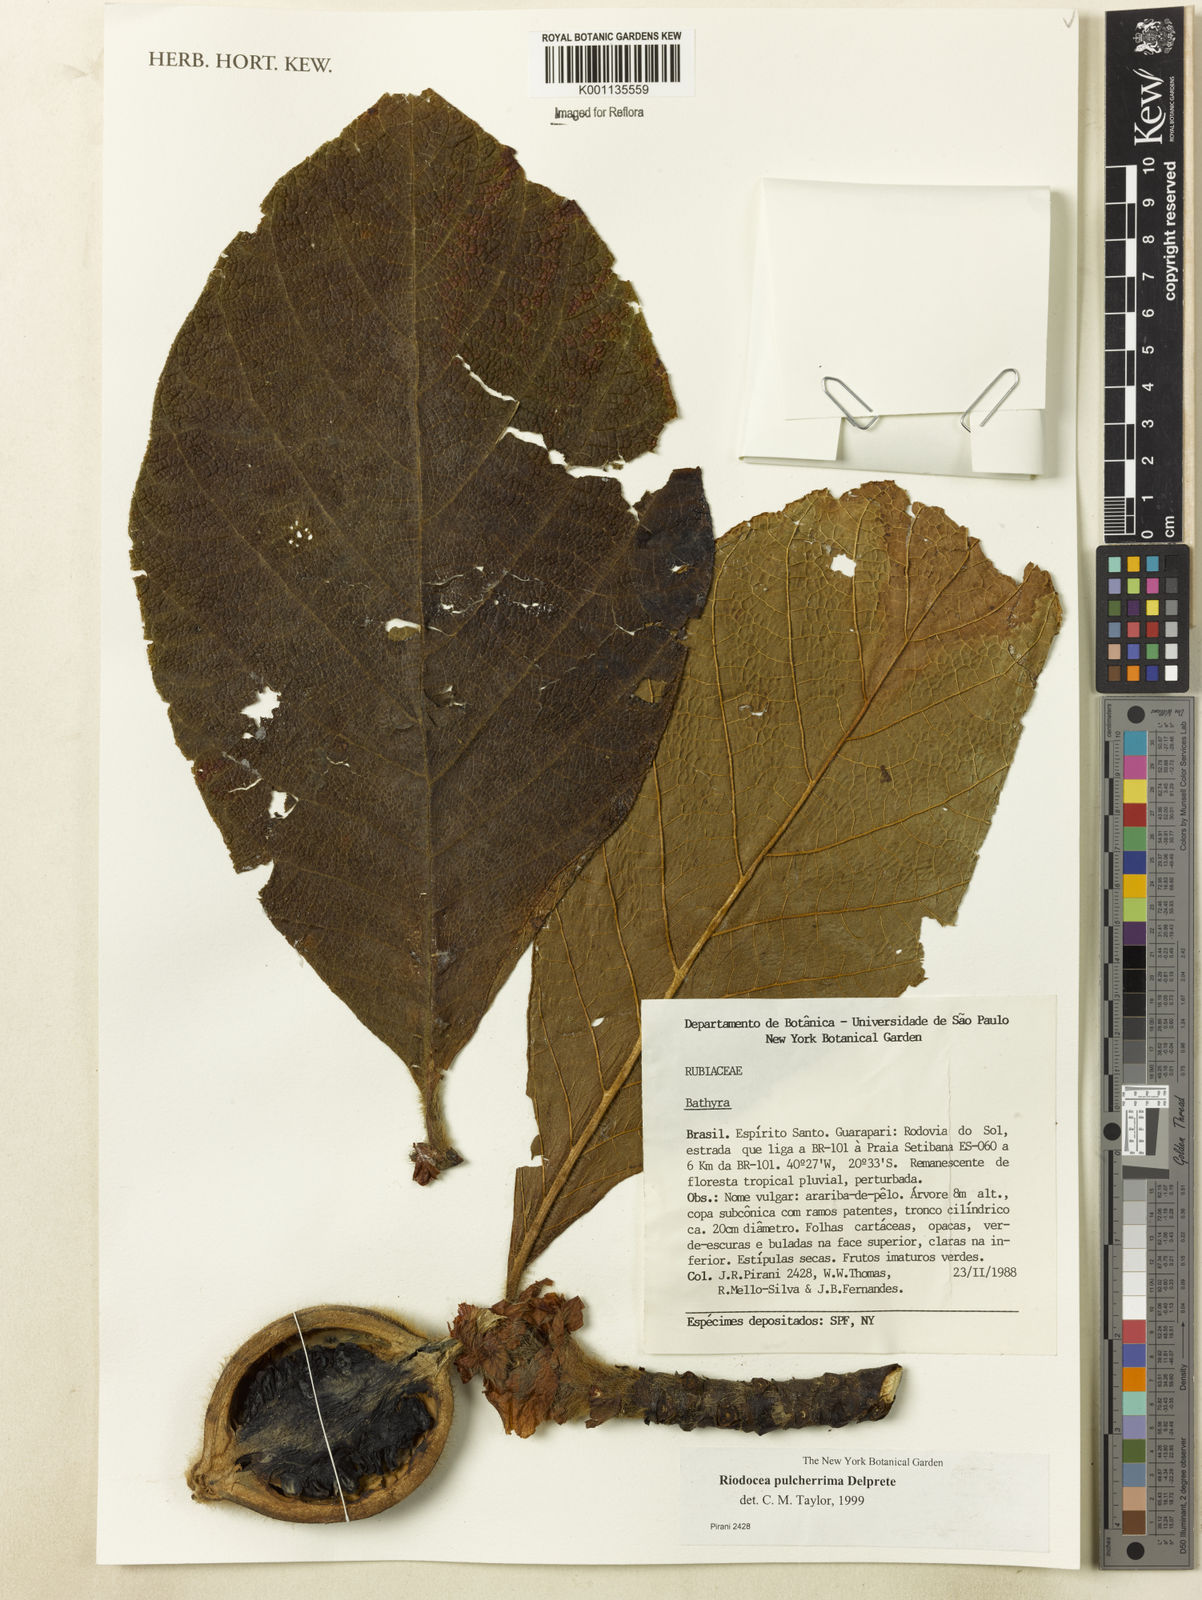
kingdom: Plantae
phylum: Tracheophyta
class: Magnoliopsida
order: Gentianales
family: Rubiaceae
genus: Riodocea
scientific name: Riodocea pulcherrima
